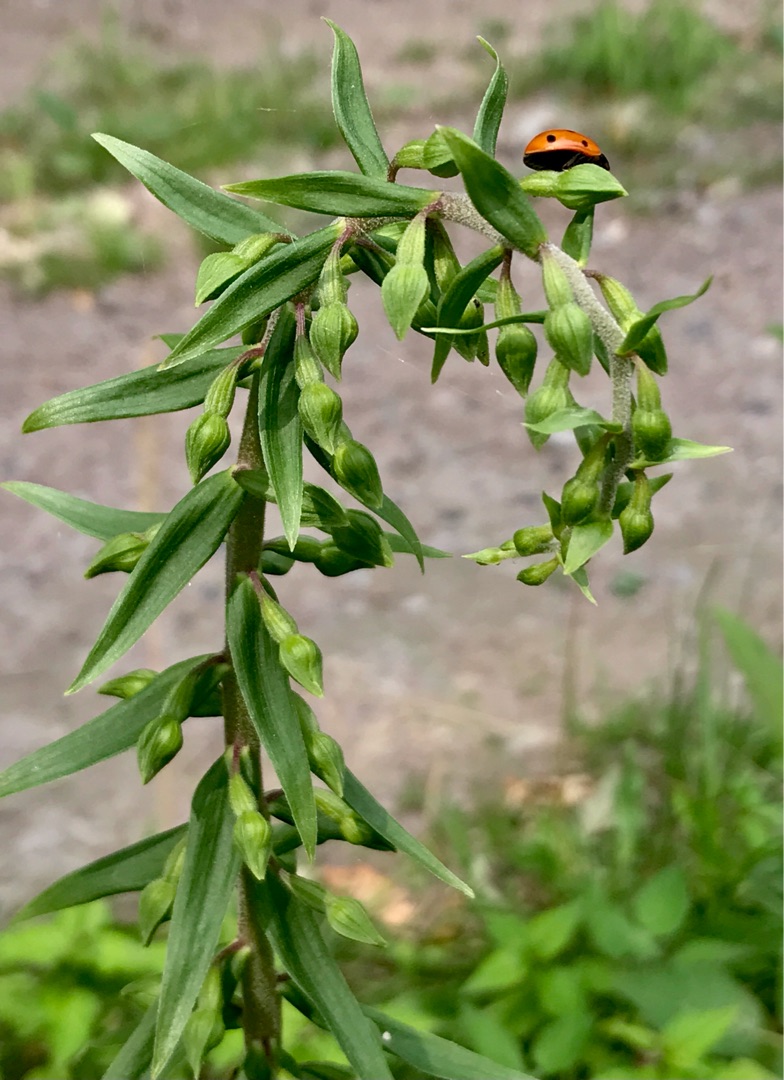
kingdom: Plantae
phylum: Tracheophyta
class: Liliopsida
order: Asparagales
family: Orchidaceae
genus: Epipactis
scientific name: Epipactis helleborine
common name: Skov-hullæbe
